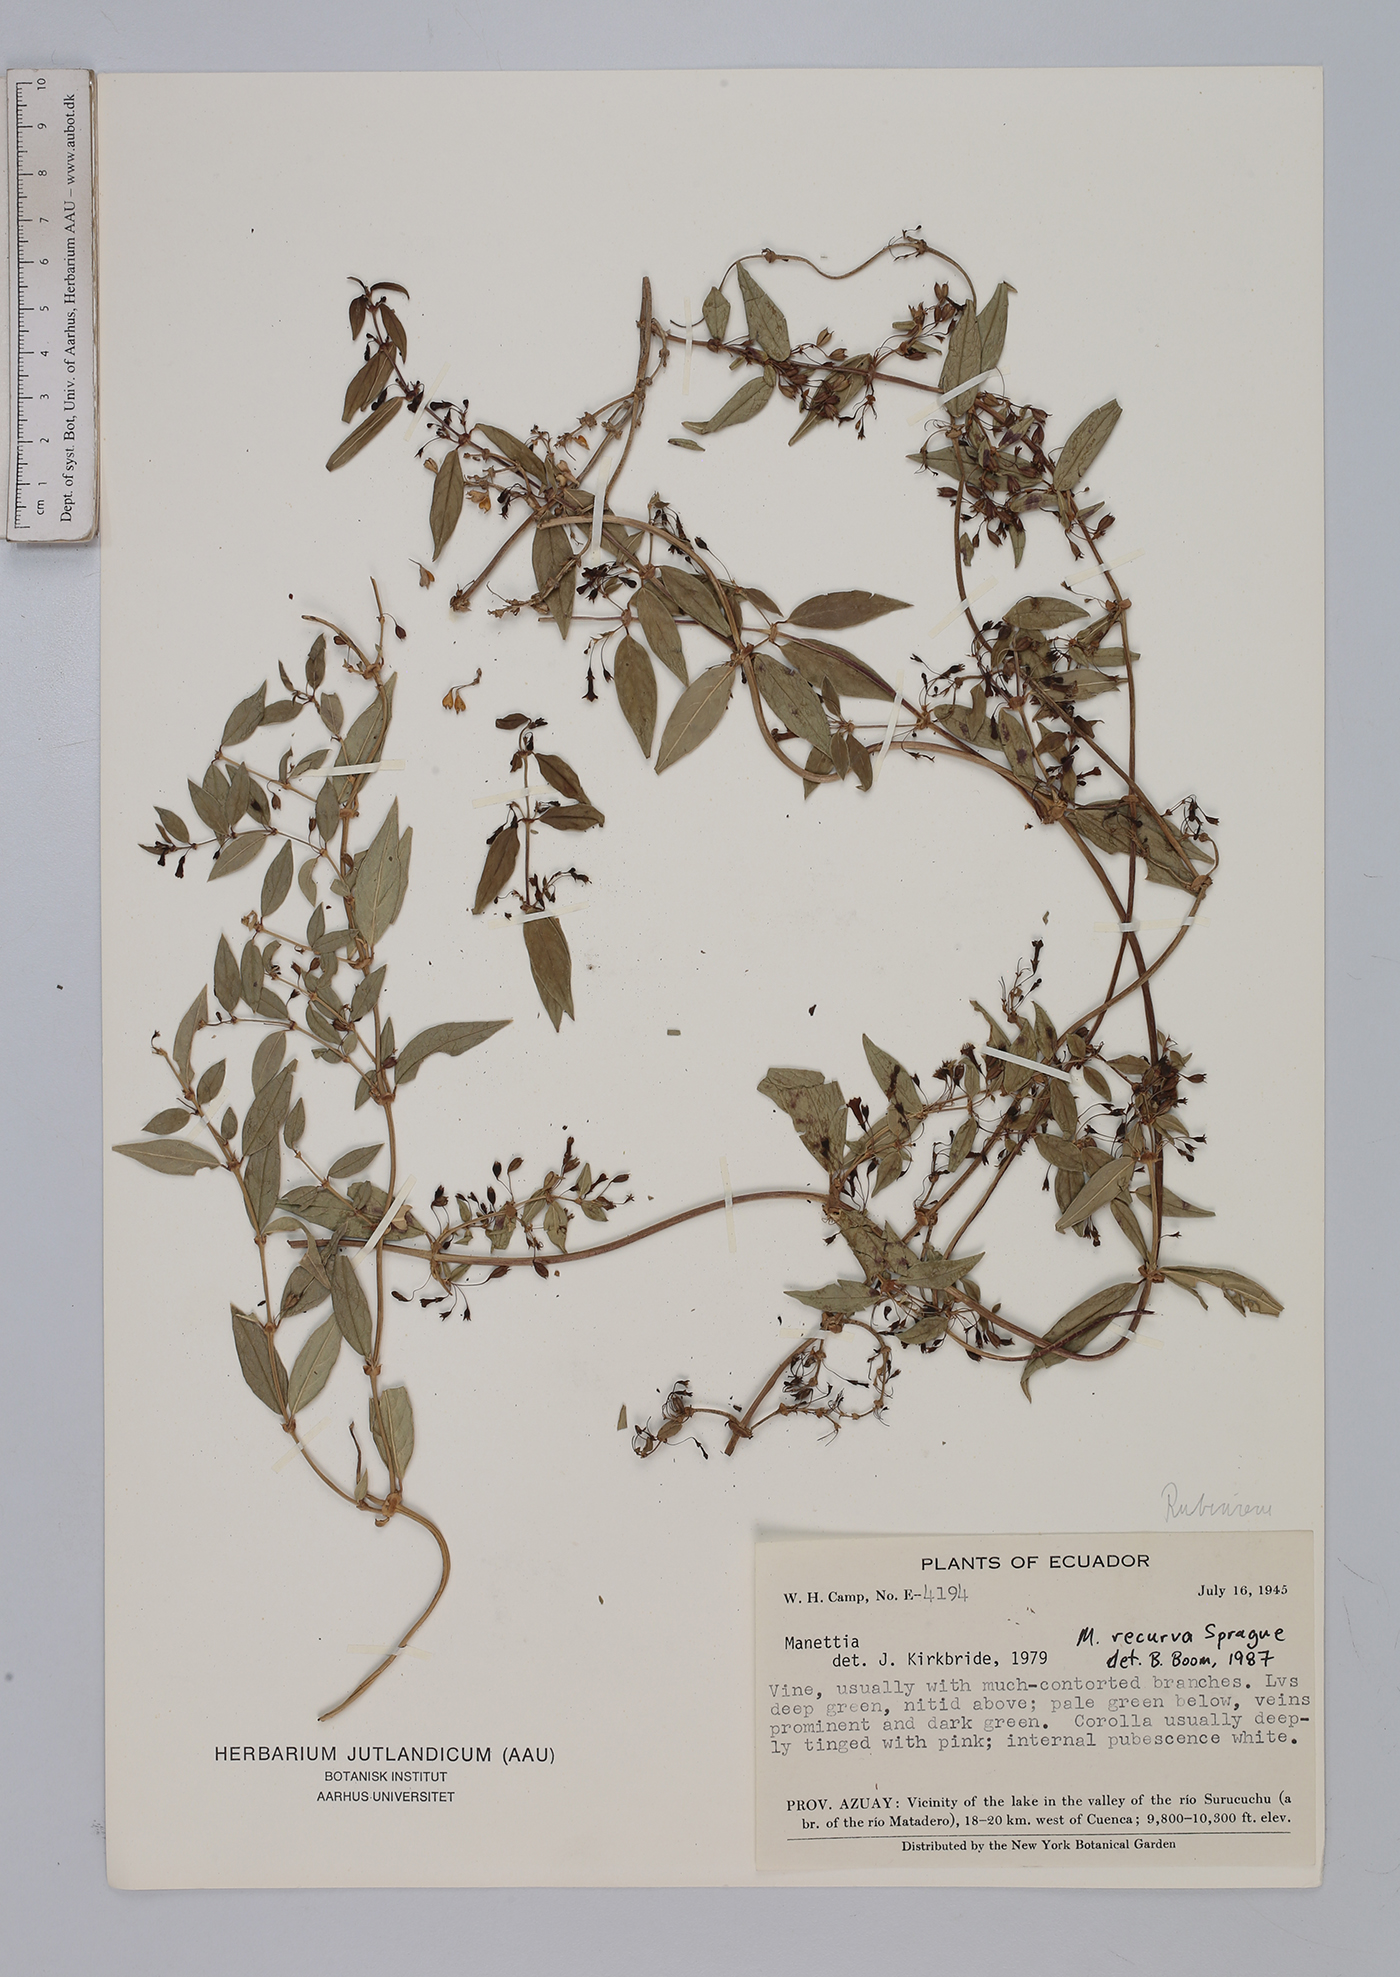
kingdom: Plantae
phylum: Tracheophyta
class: Magnoliopsida
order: Gentianales
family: Rubiaceae
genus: Manettia
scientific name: Manettia recurva
